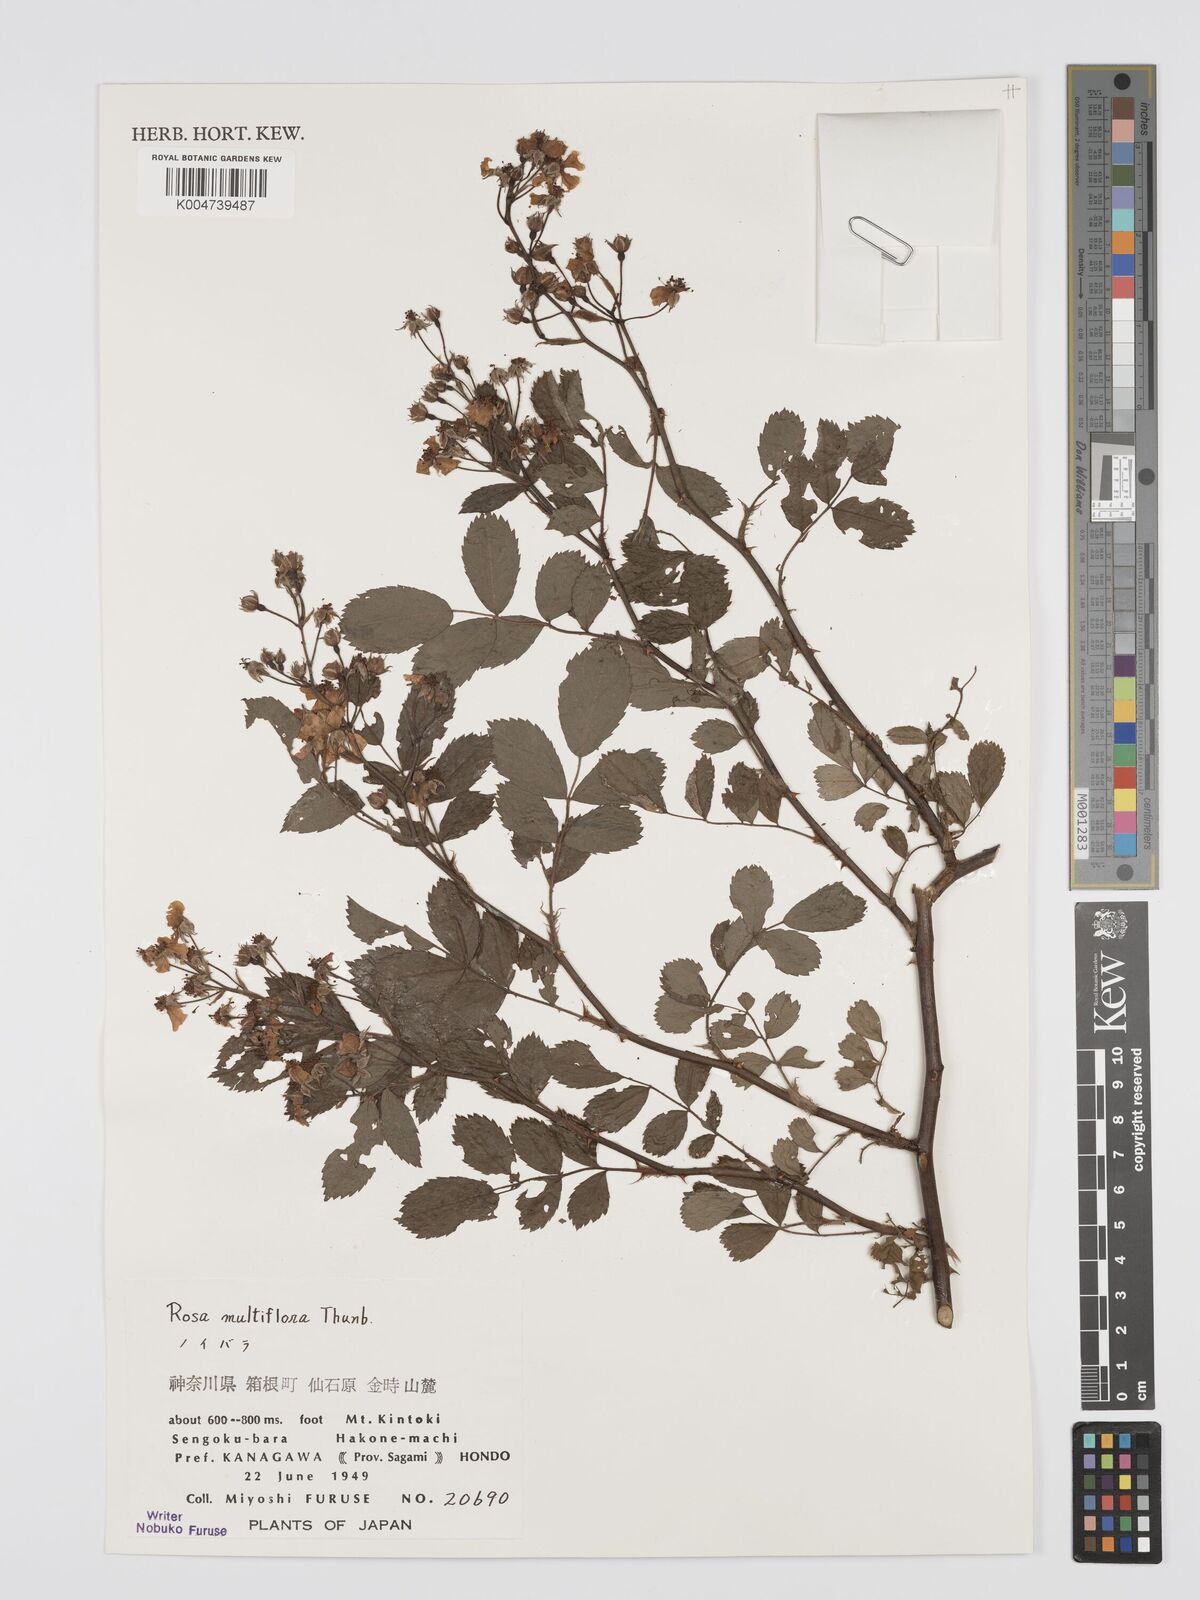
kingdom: Plantae
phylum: Tracheophyta
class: Magnoliopsida
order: Rosales
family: Rosaceae
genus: Rosa
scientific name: Rosa
